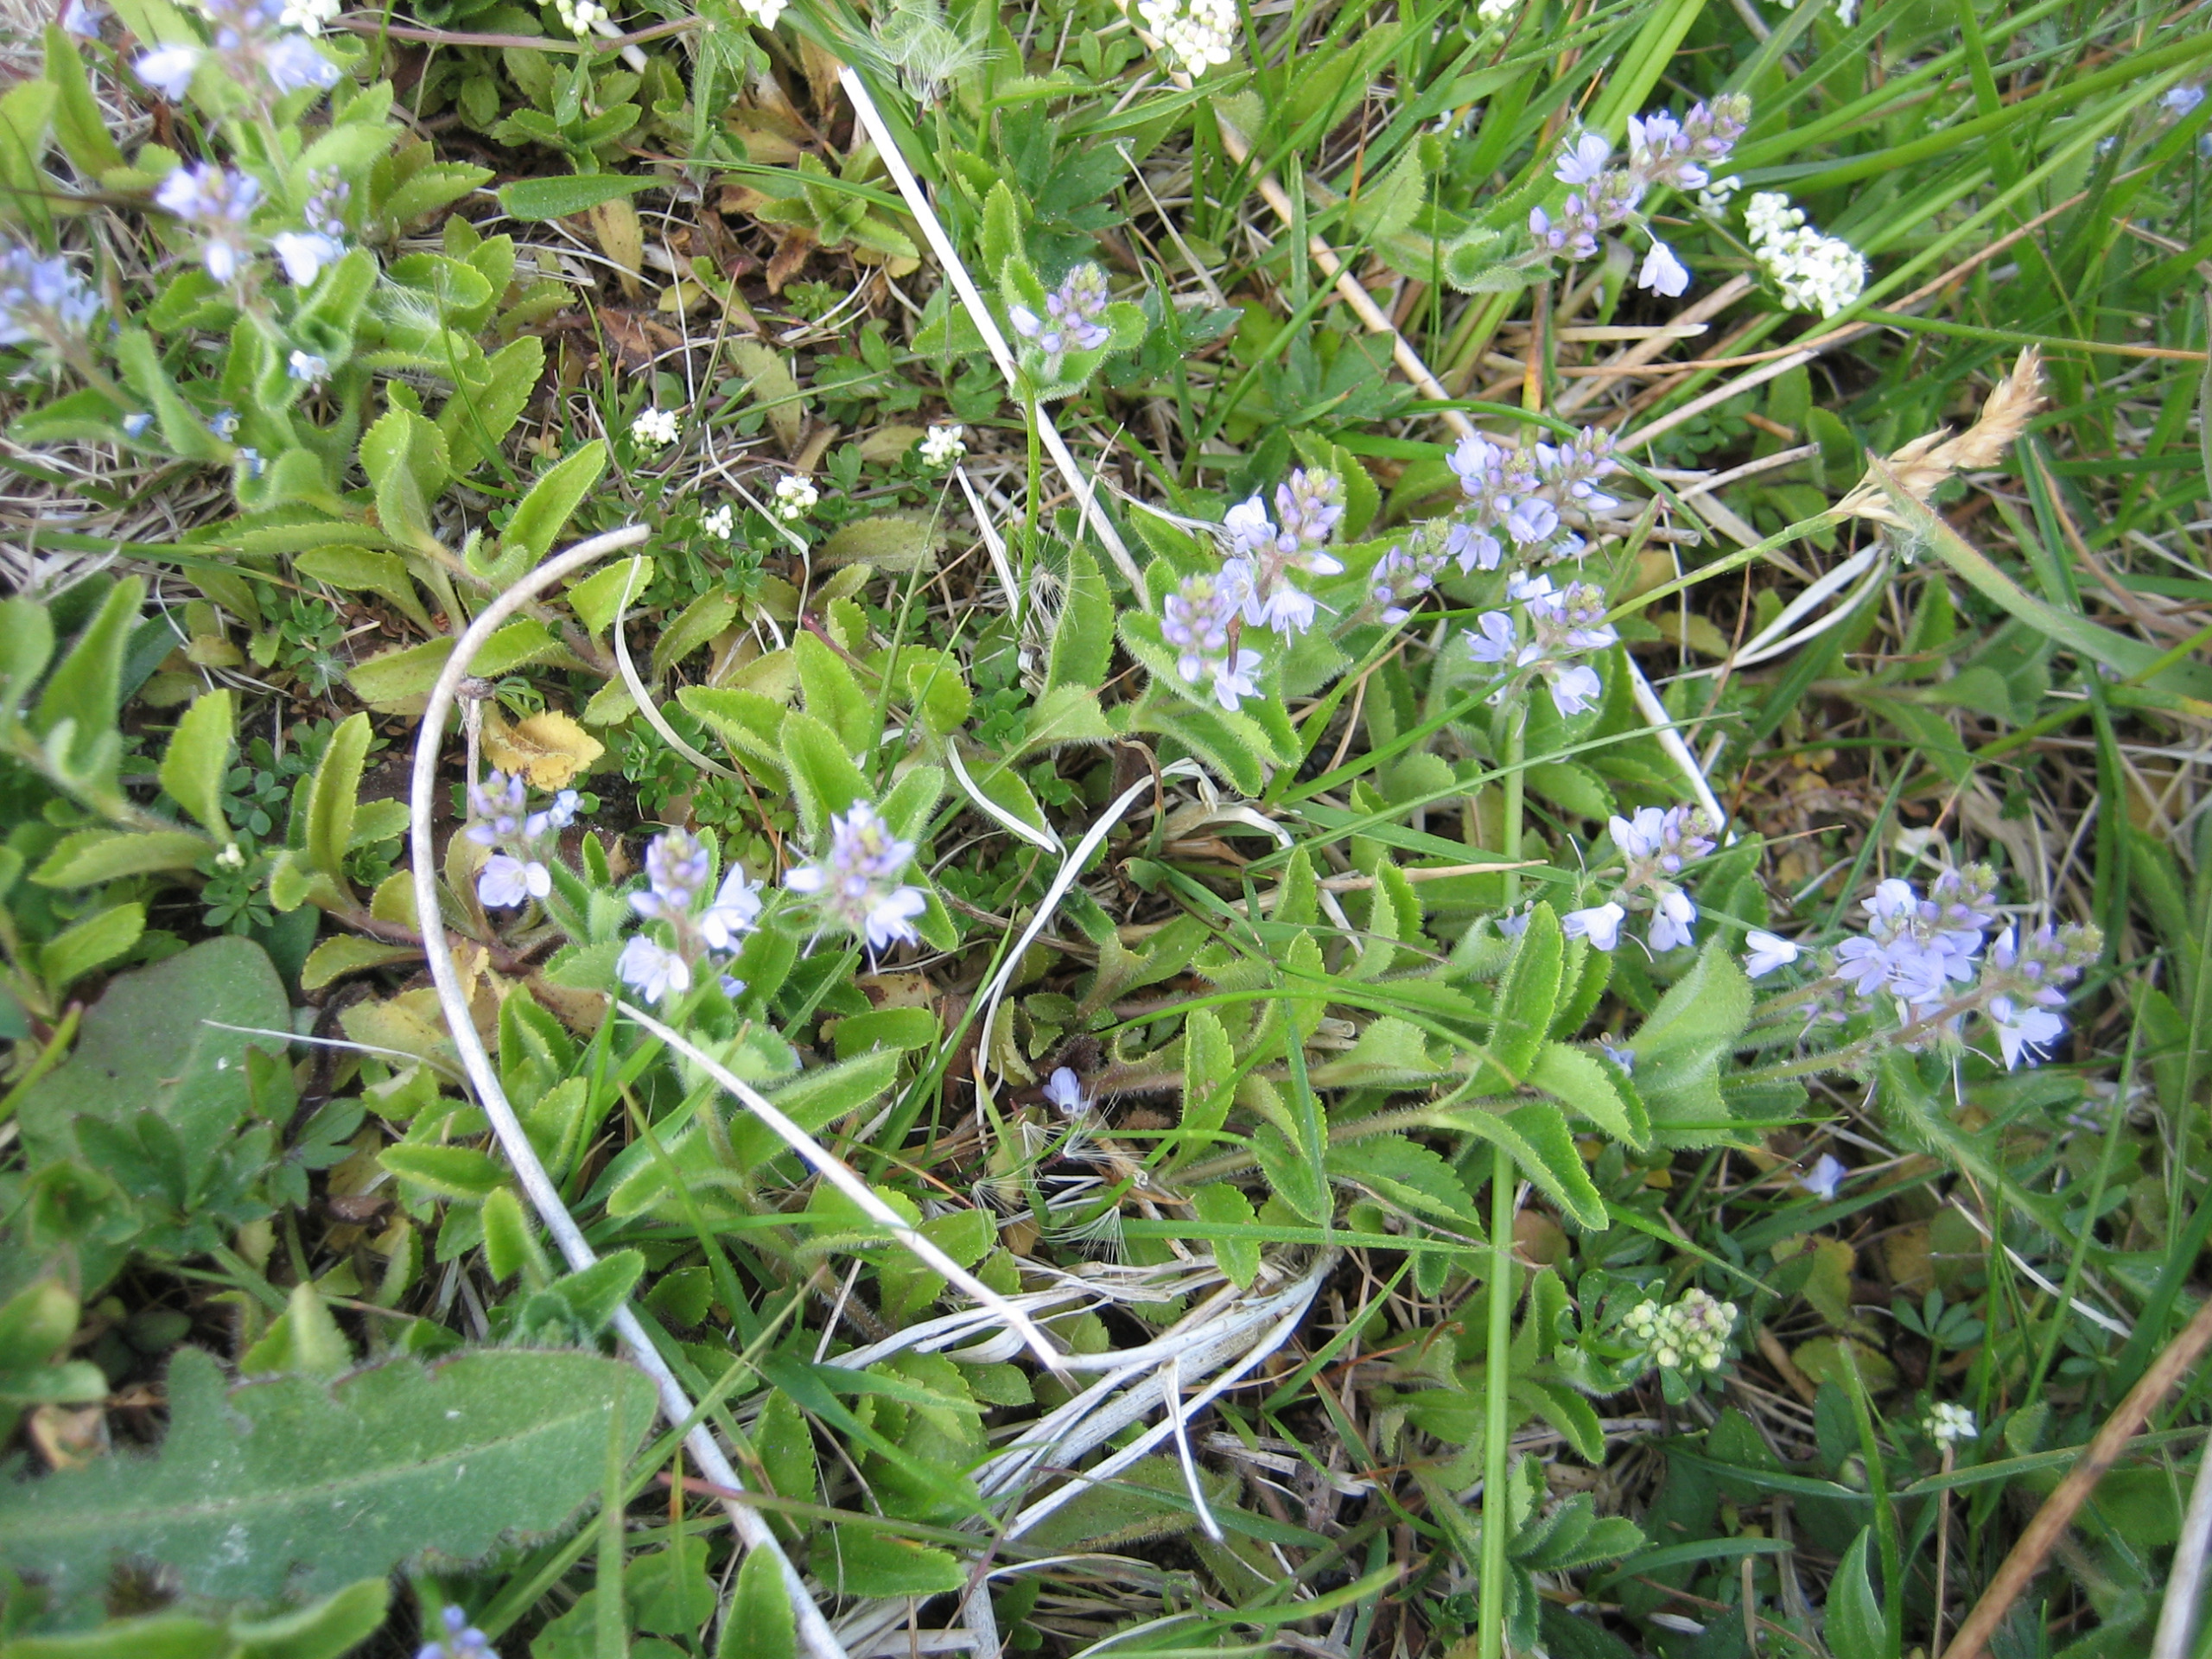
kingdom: Plantae
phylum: Tracheophyta
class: Magnoliopsida
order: Lamiales
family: Plantaginaceae
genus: Veronica
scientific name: Veronica officinalis
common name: Læge-ærenpris
